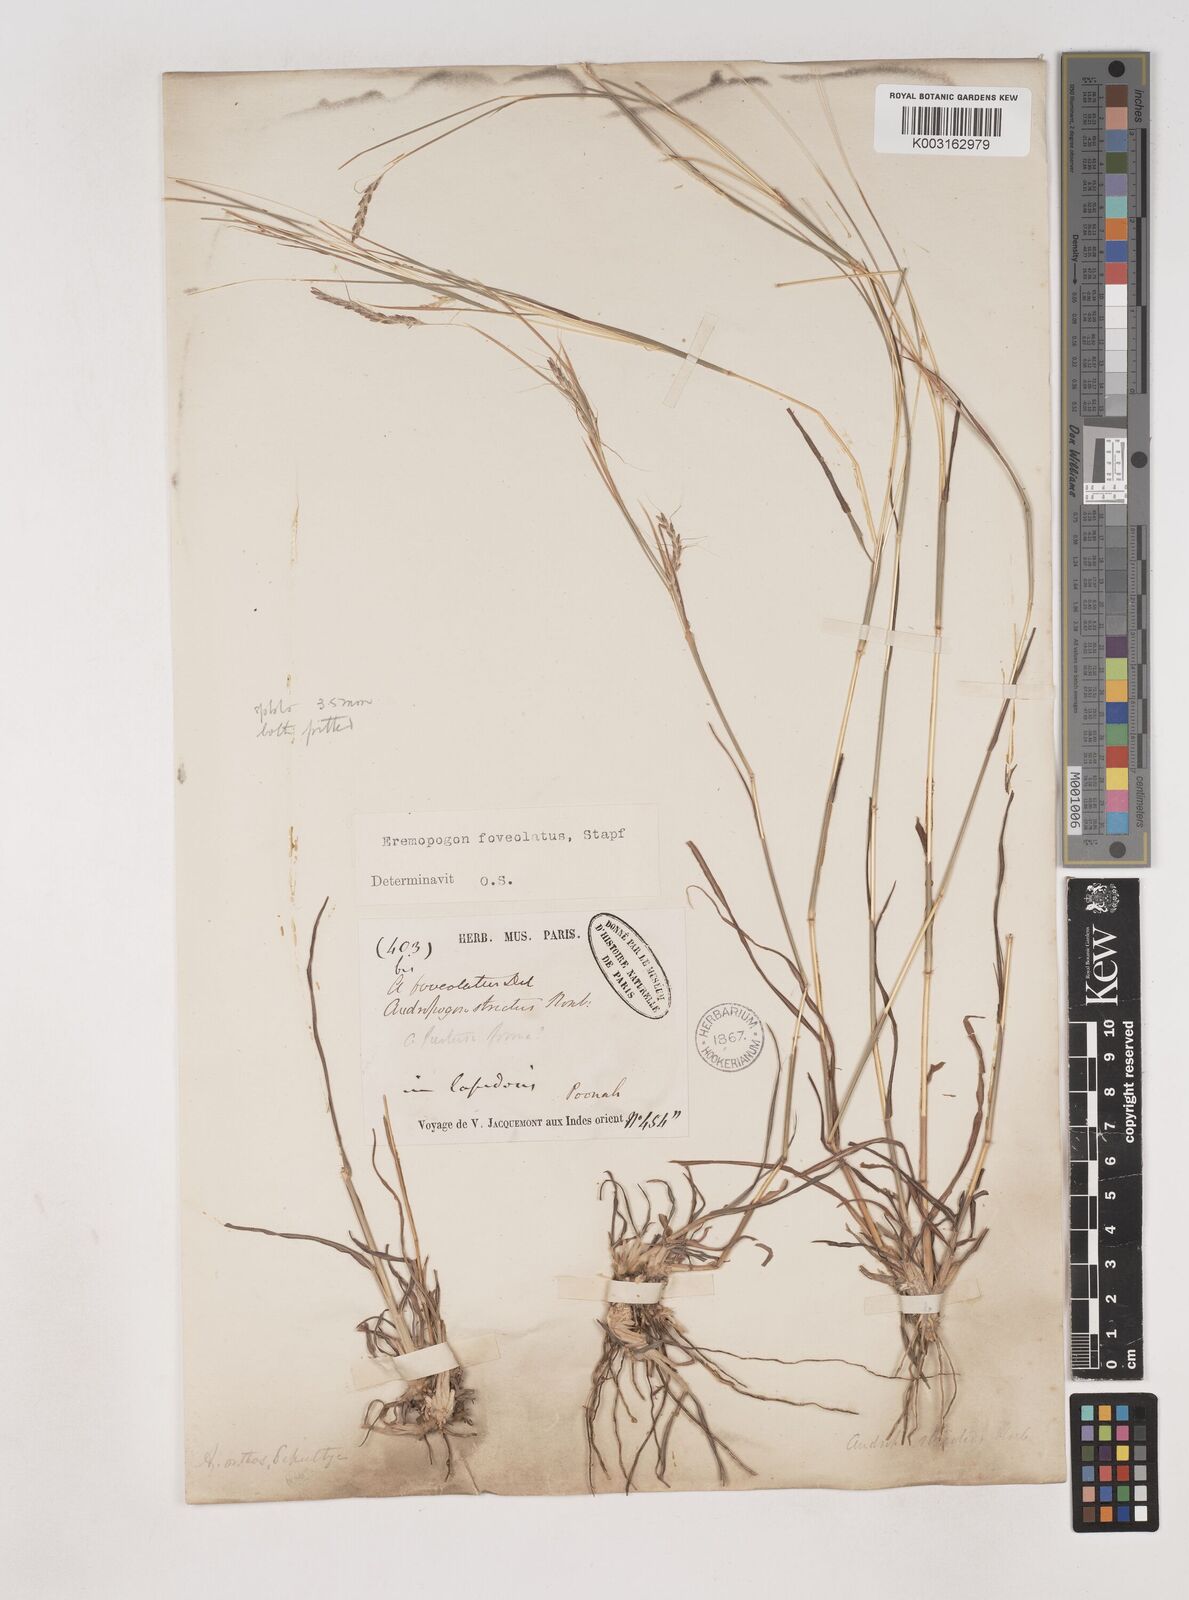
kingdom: Plantae
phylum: Tracheophyta
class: Liliopsida
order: Poales
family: Poaceae
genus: Dichanthium
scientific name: Dichanthium foveolatum
